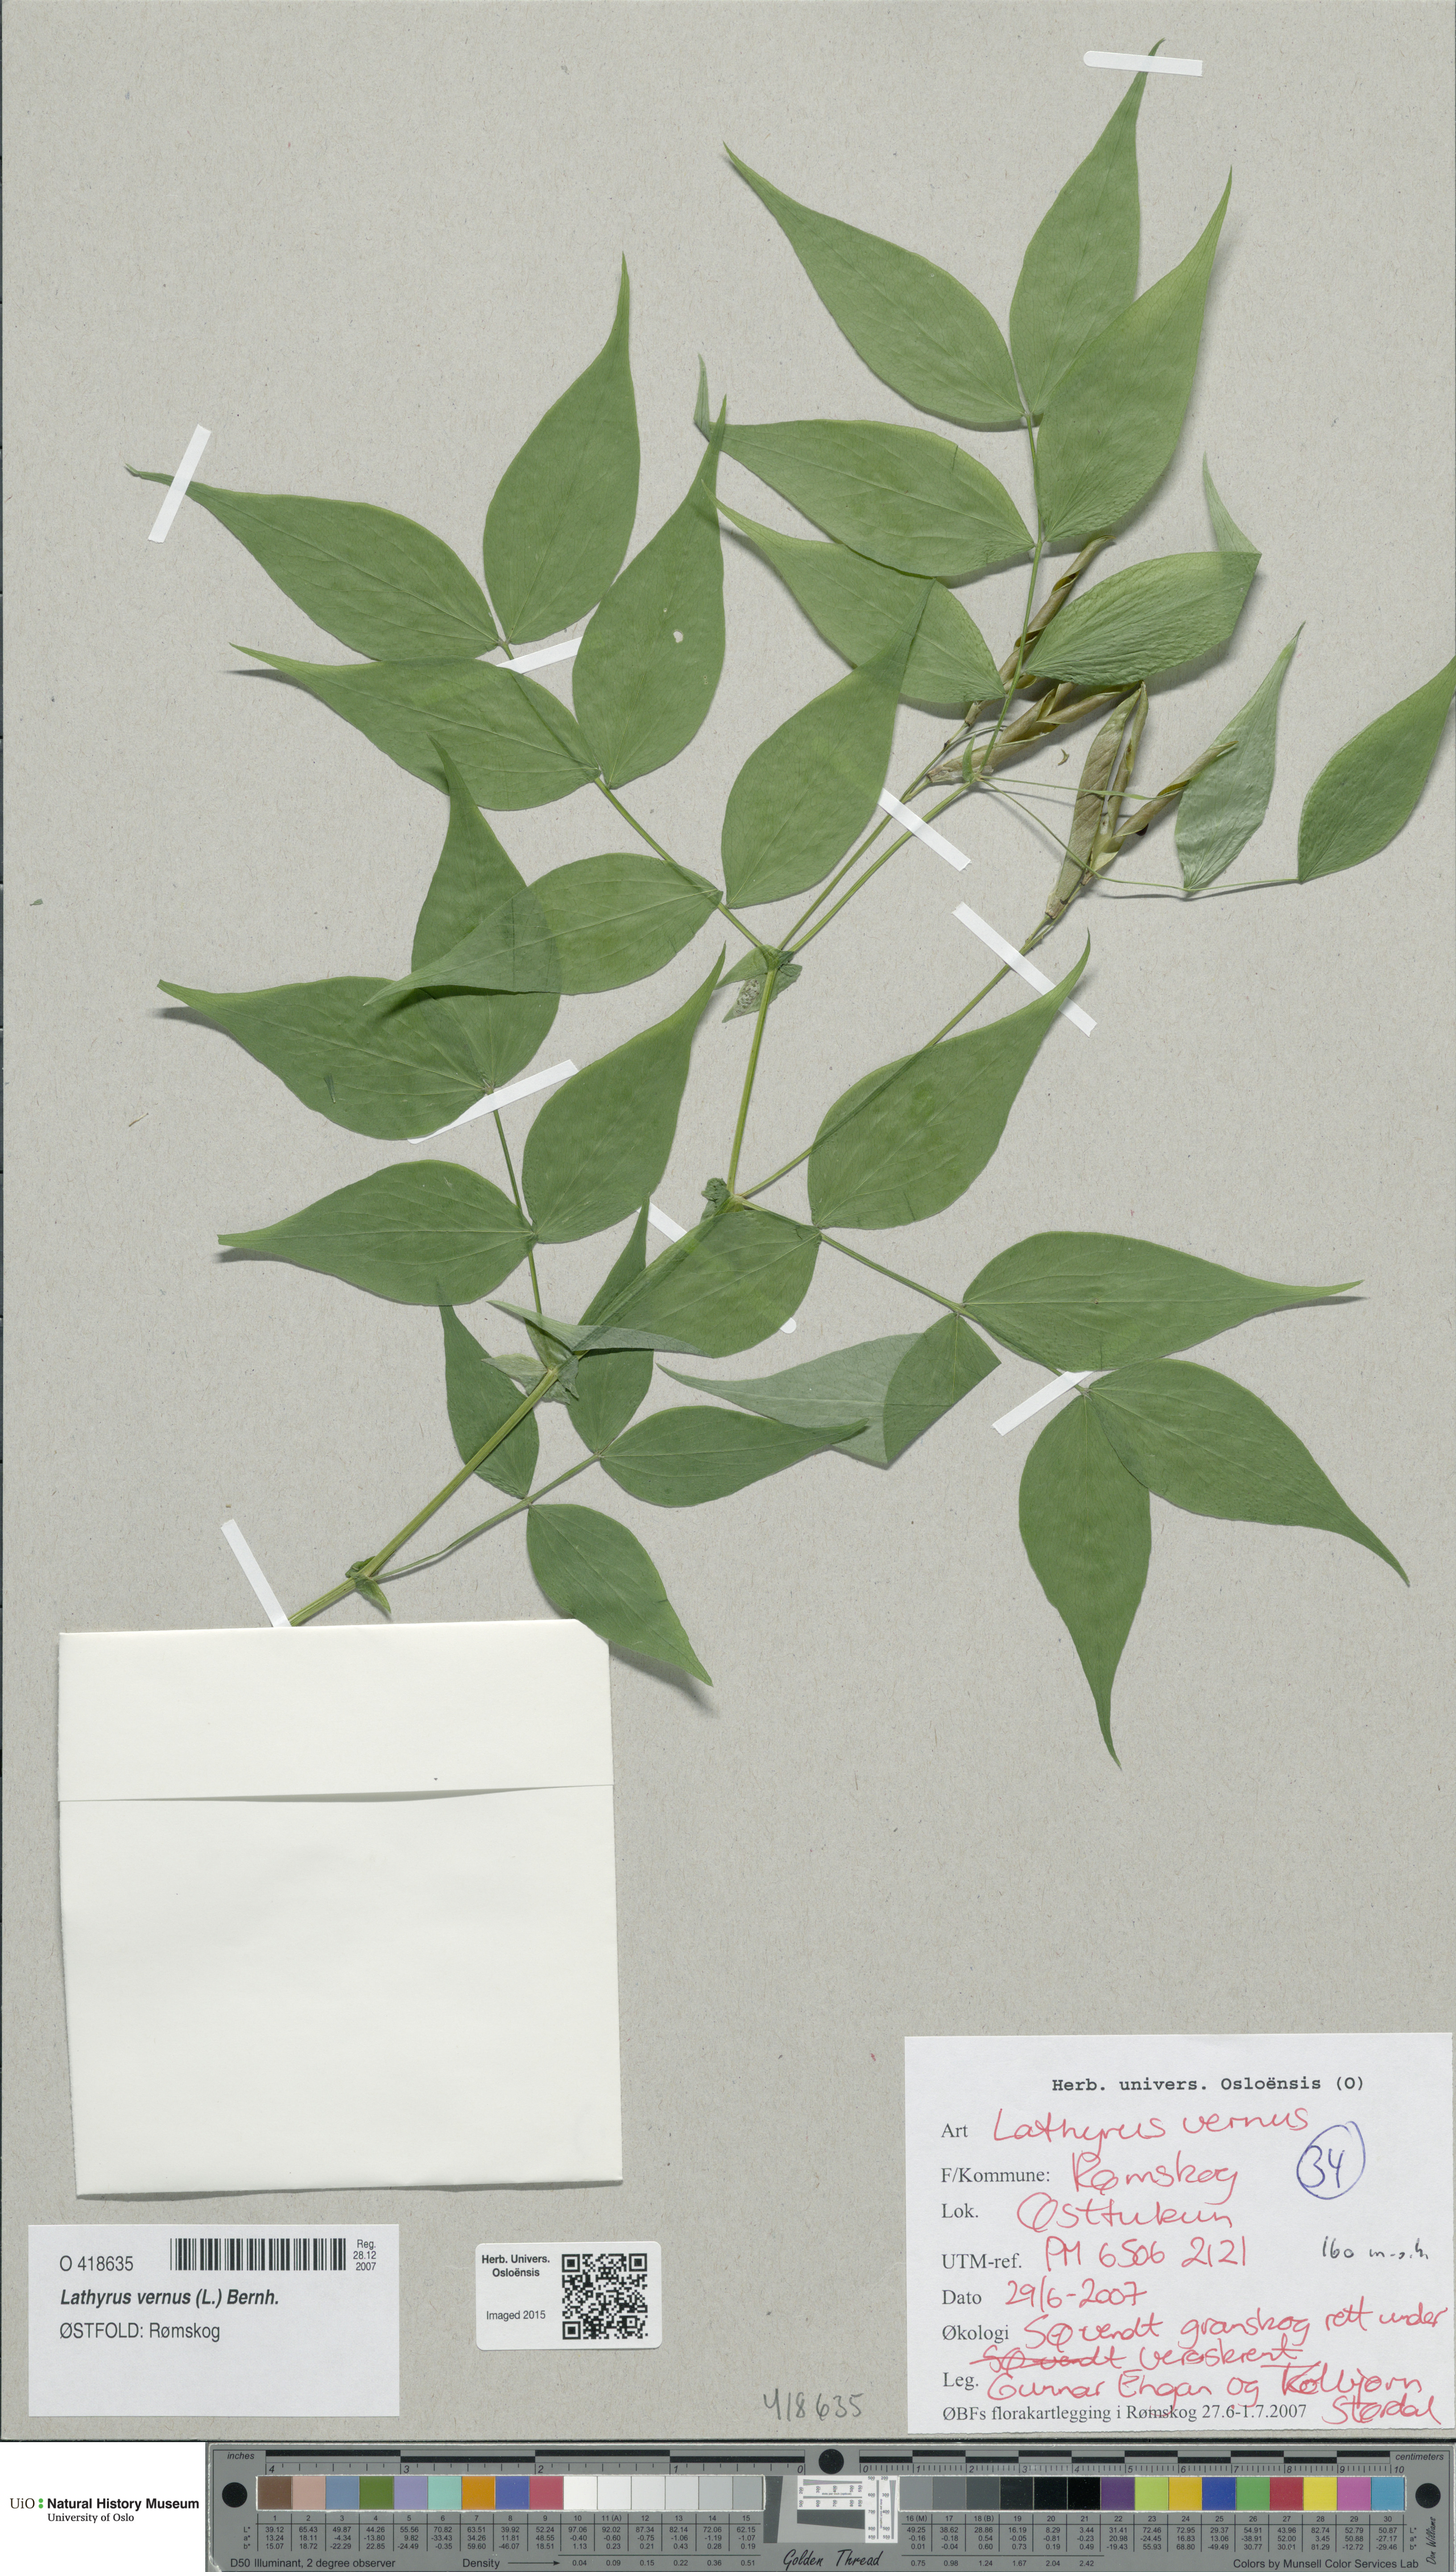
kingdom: Plantae
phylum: Tracheophyta
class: Magnoliopsida
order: Fabales
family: Fabaceae
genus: Lathyrus
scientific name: Lathyrus vernus
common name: Spring pea
